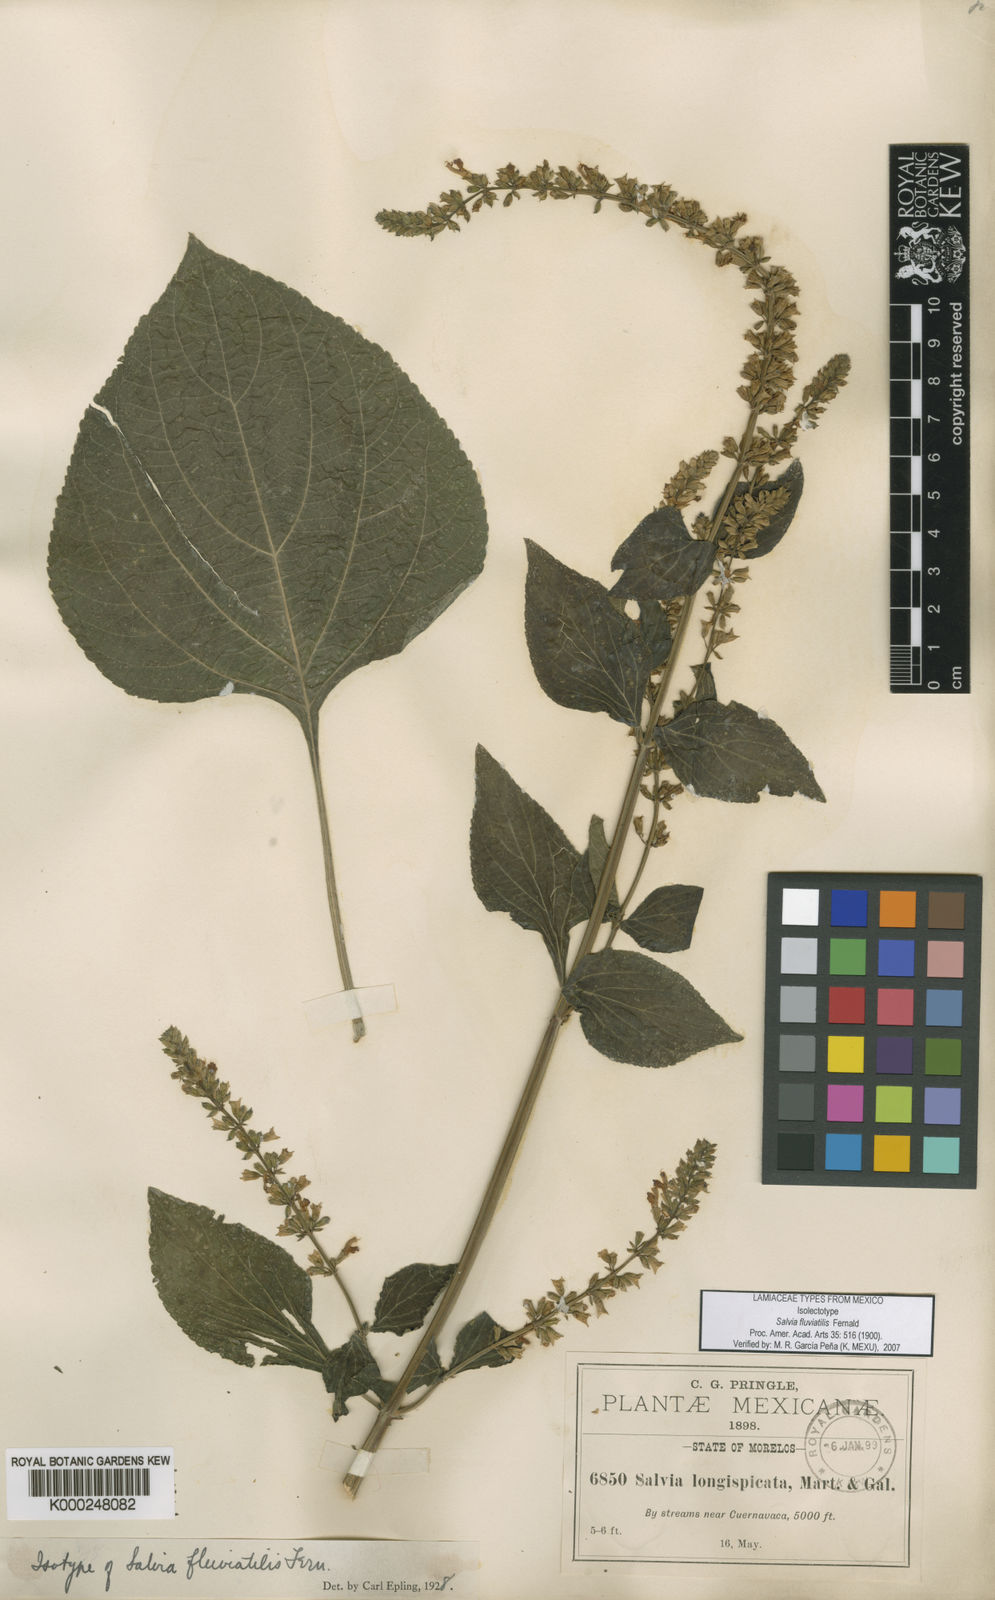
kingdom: Plantae
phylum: Tracheophyta
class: Magnoliopsida
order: Lamiales
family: Lamiaceae
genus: Salvia
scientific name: Salvia fluviatilis
